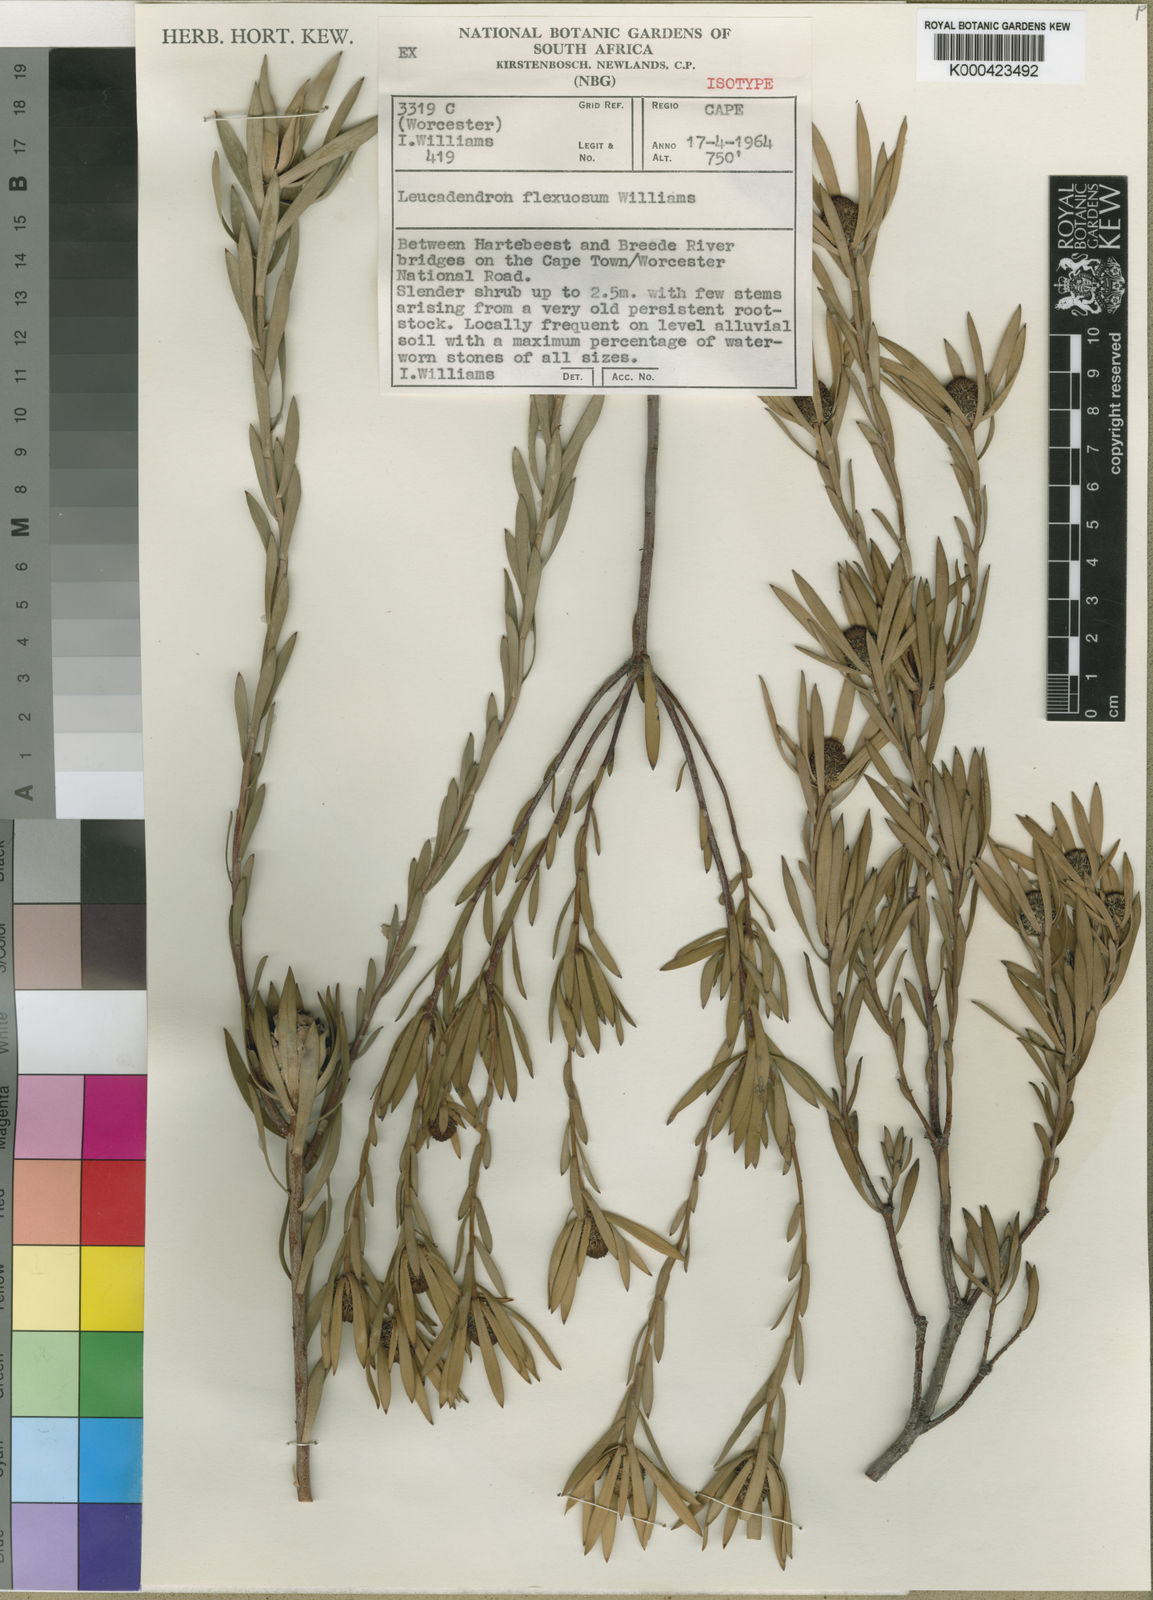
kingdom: Plantae
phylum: Tracheophyta
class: Magnoliopsida
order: Proteales
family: Proteaceae
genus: Leucadendron
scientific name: Leucadendron flexuosum
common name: Worcester conebush
